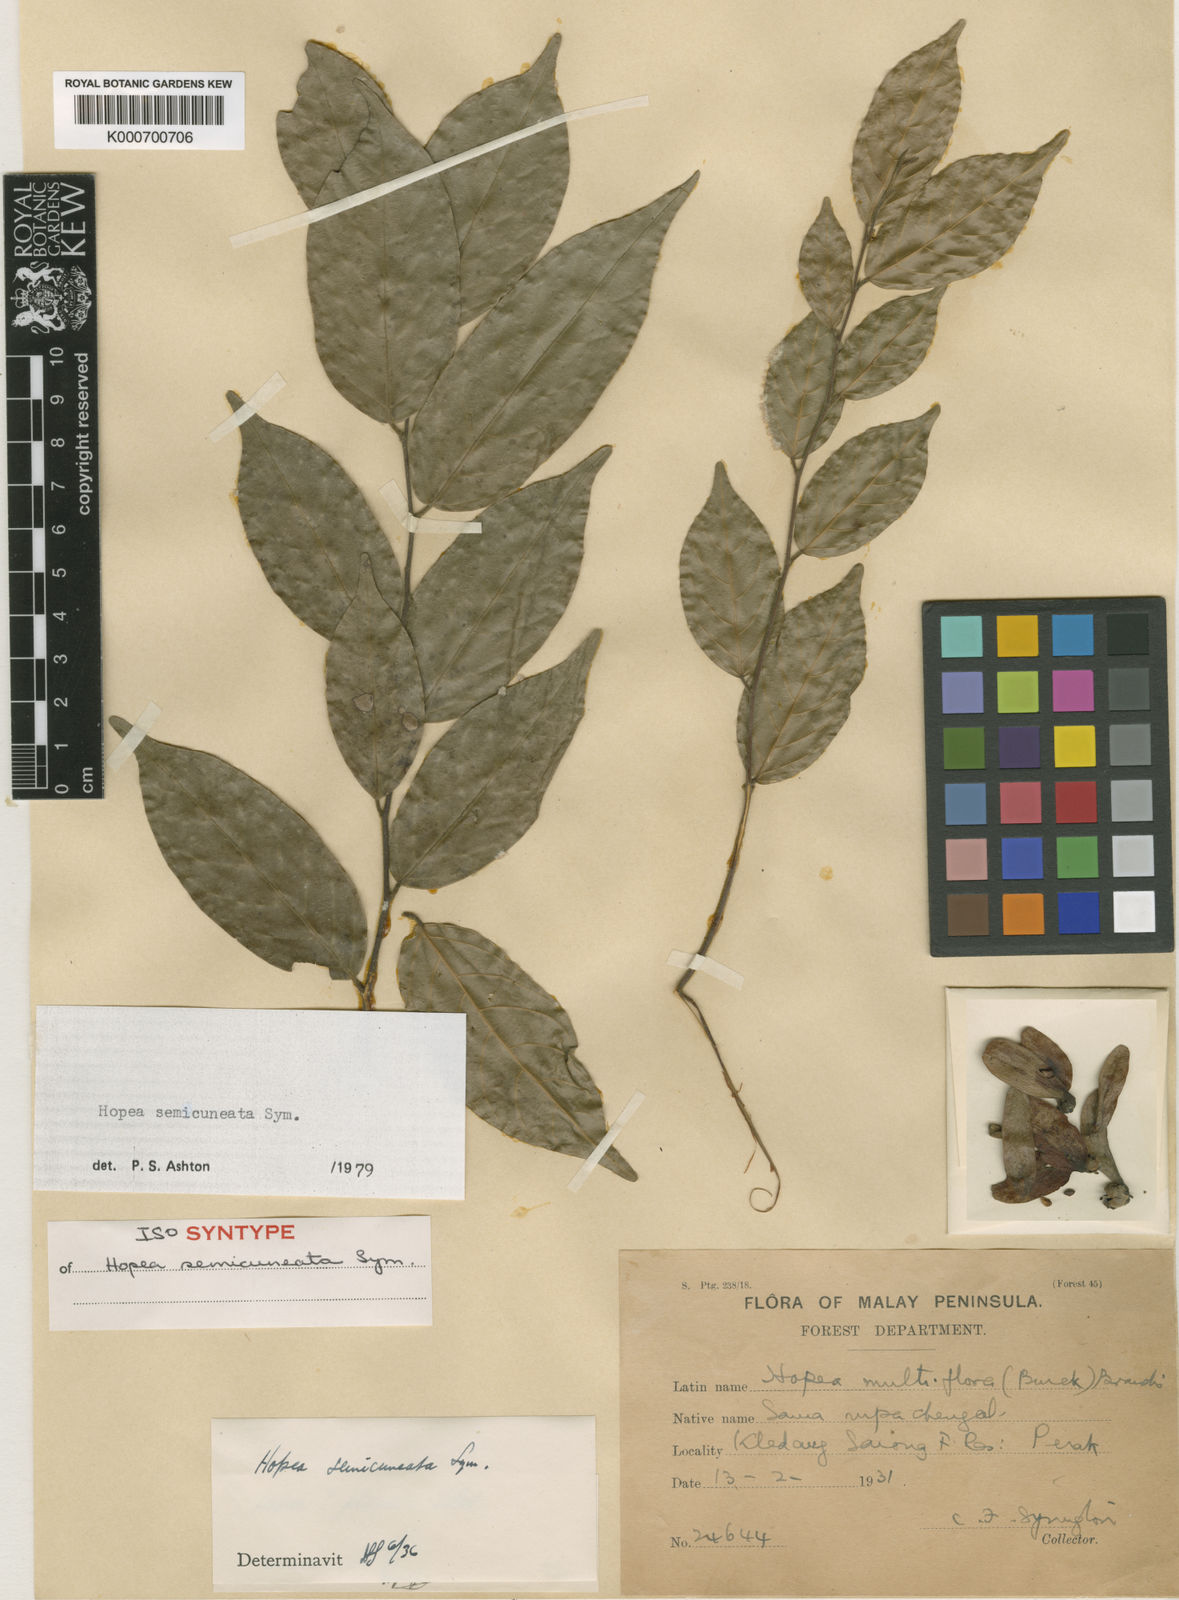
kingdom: Plantae
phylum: Tracheophyta
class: Magnoliopsida
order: Malvales
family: Dipterocarpaceae
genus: Hopea
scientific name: Hopea semicuneata
